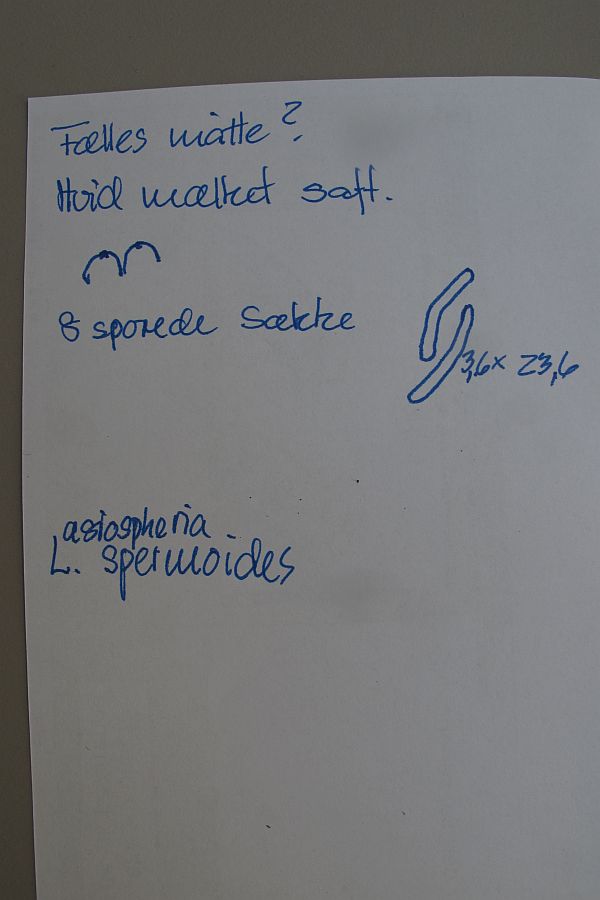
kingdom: Fungi
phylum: Ascomycota
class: Sordariomycetes
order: Sordariales
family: Helminthosphaeriaceae
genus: Ruzenia
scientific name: Ruzenia spermoides
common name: glat børstekerne
